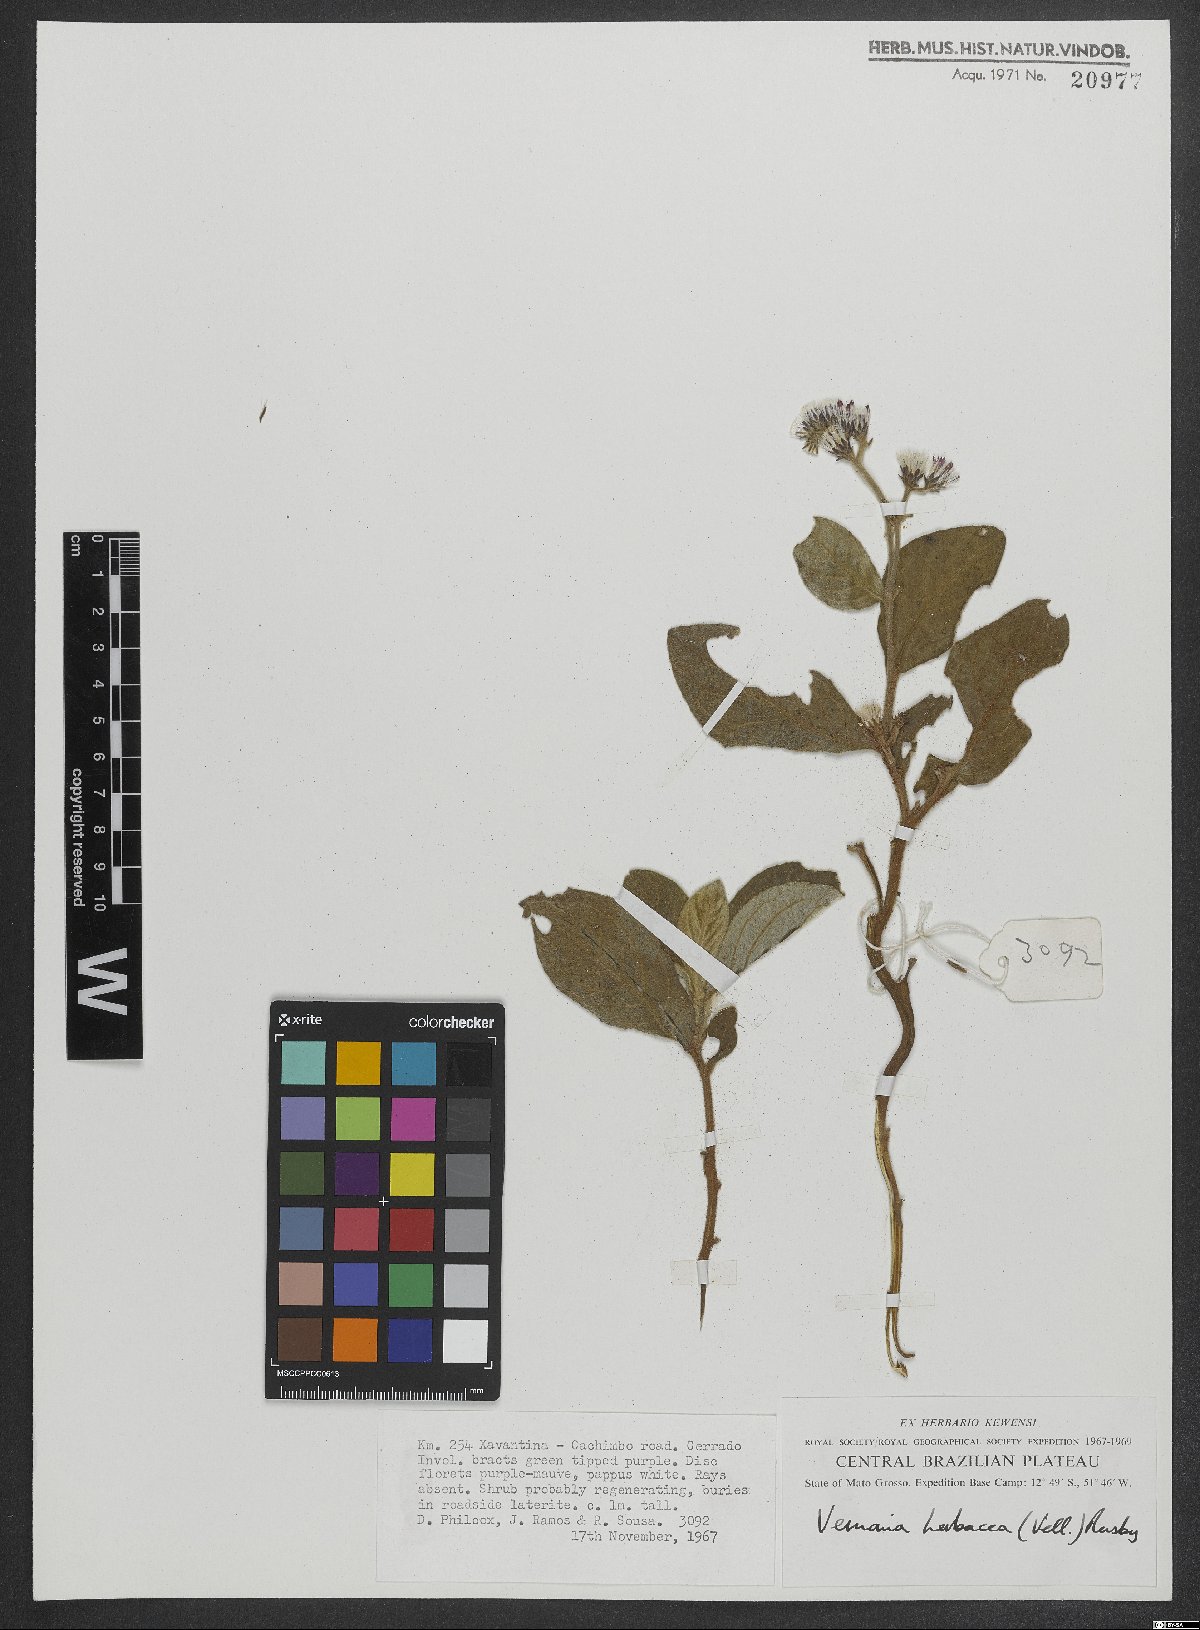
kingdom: Plantae
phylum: Tracheophyta
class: Magnoliopsida
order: Asterales
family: Asteraceae
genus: Chrysolaena
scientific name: Chrysolaena obovata
